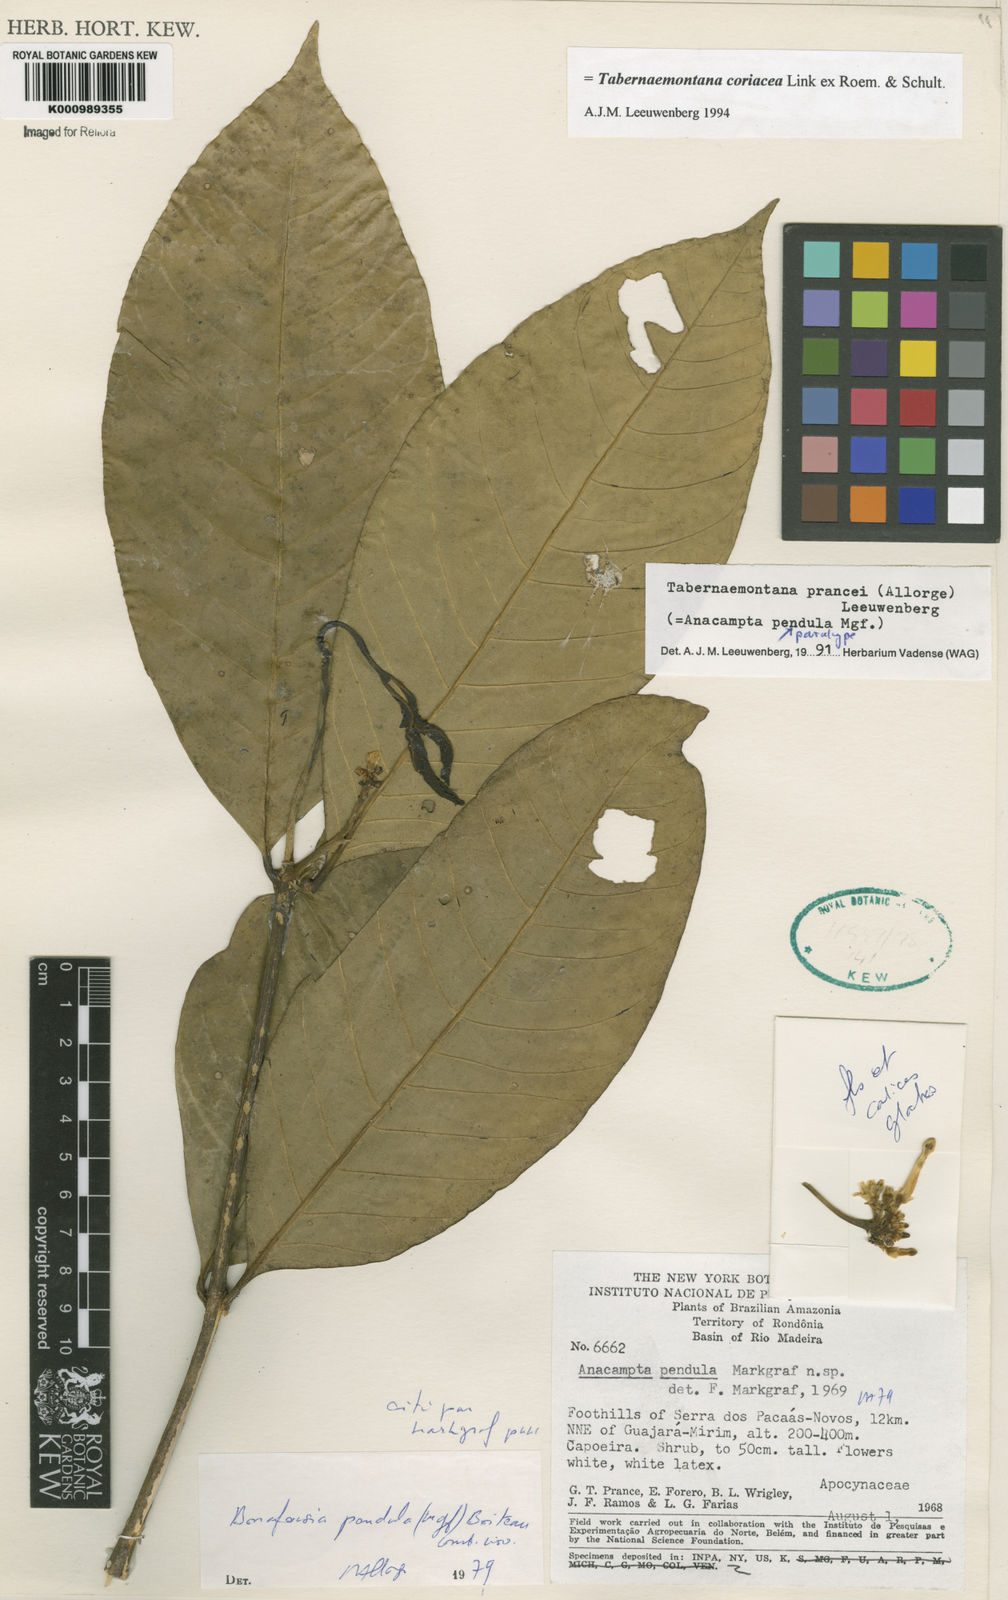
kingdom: Plantae
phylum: Tracheophyta
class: Magnoliopsida
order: Gentianales
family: Apocynaceae
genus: Tabernaemontana
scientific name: Tabernaemontana coriacea
